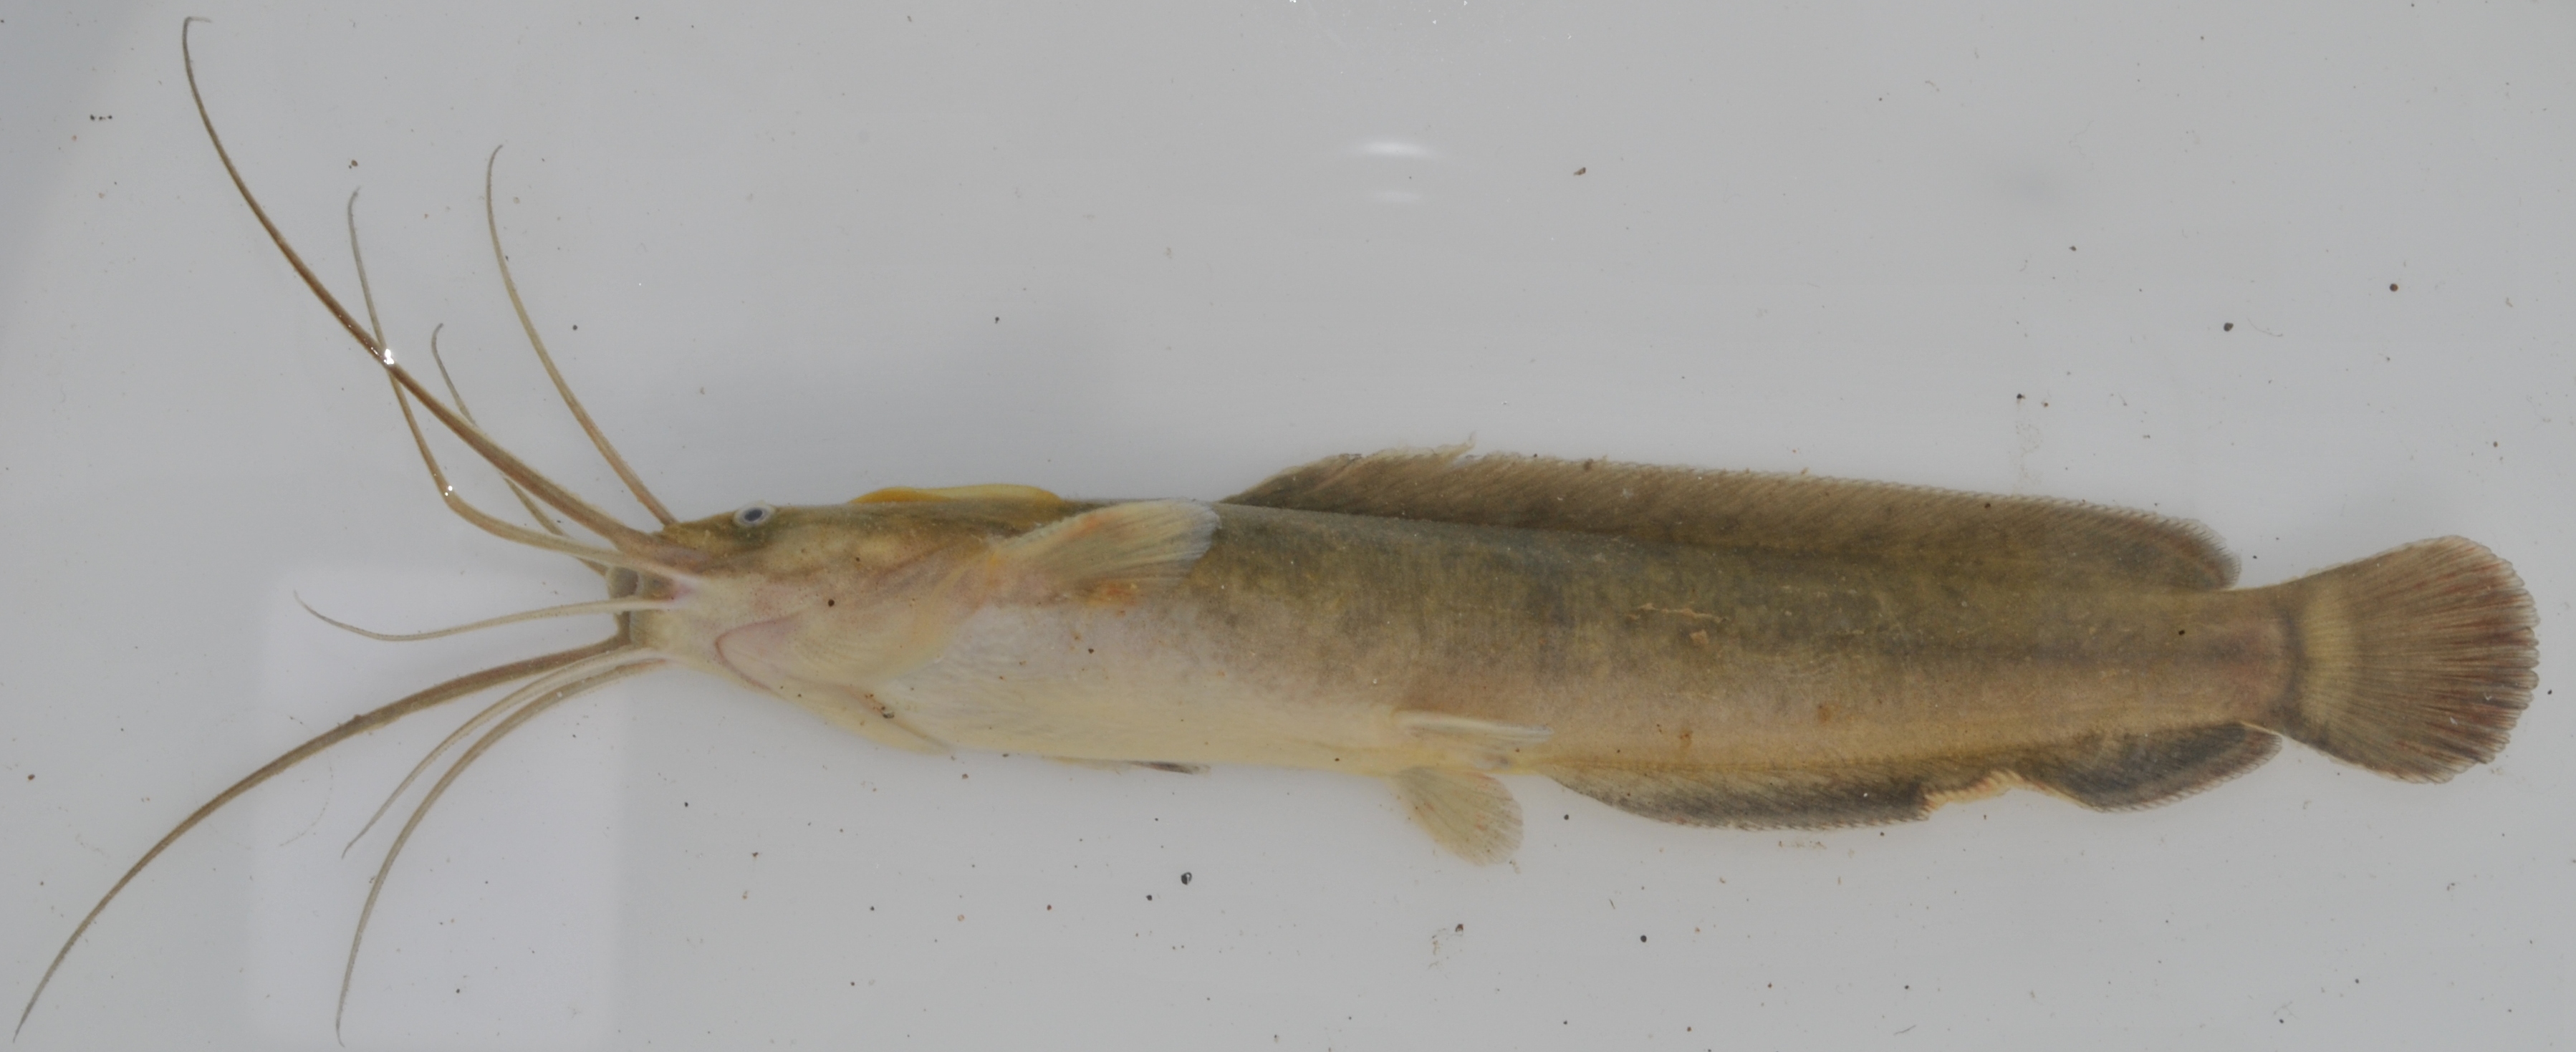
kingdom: Animalia
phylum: Chordata
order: Siluriformes
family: Clariidae
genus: Clarias
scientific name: Clarias gariepinus
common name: African catfish
